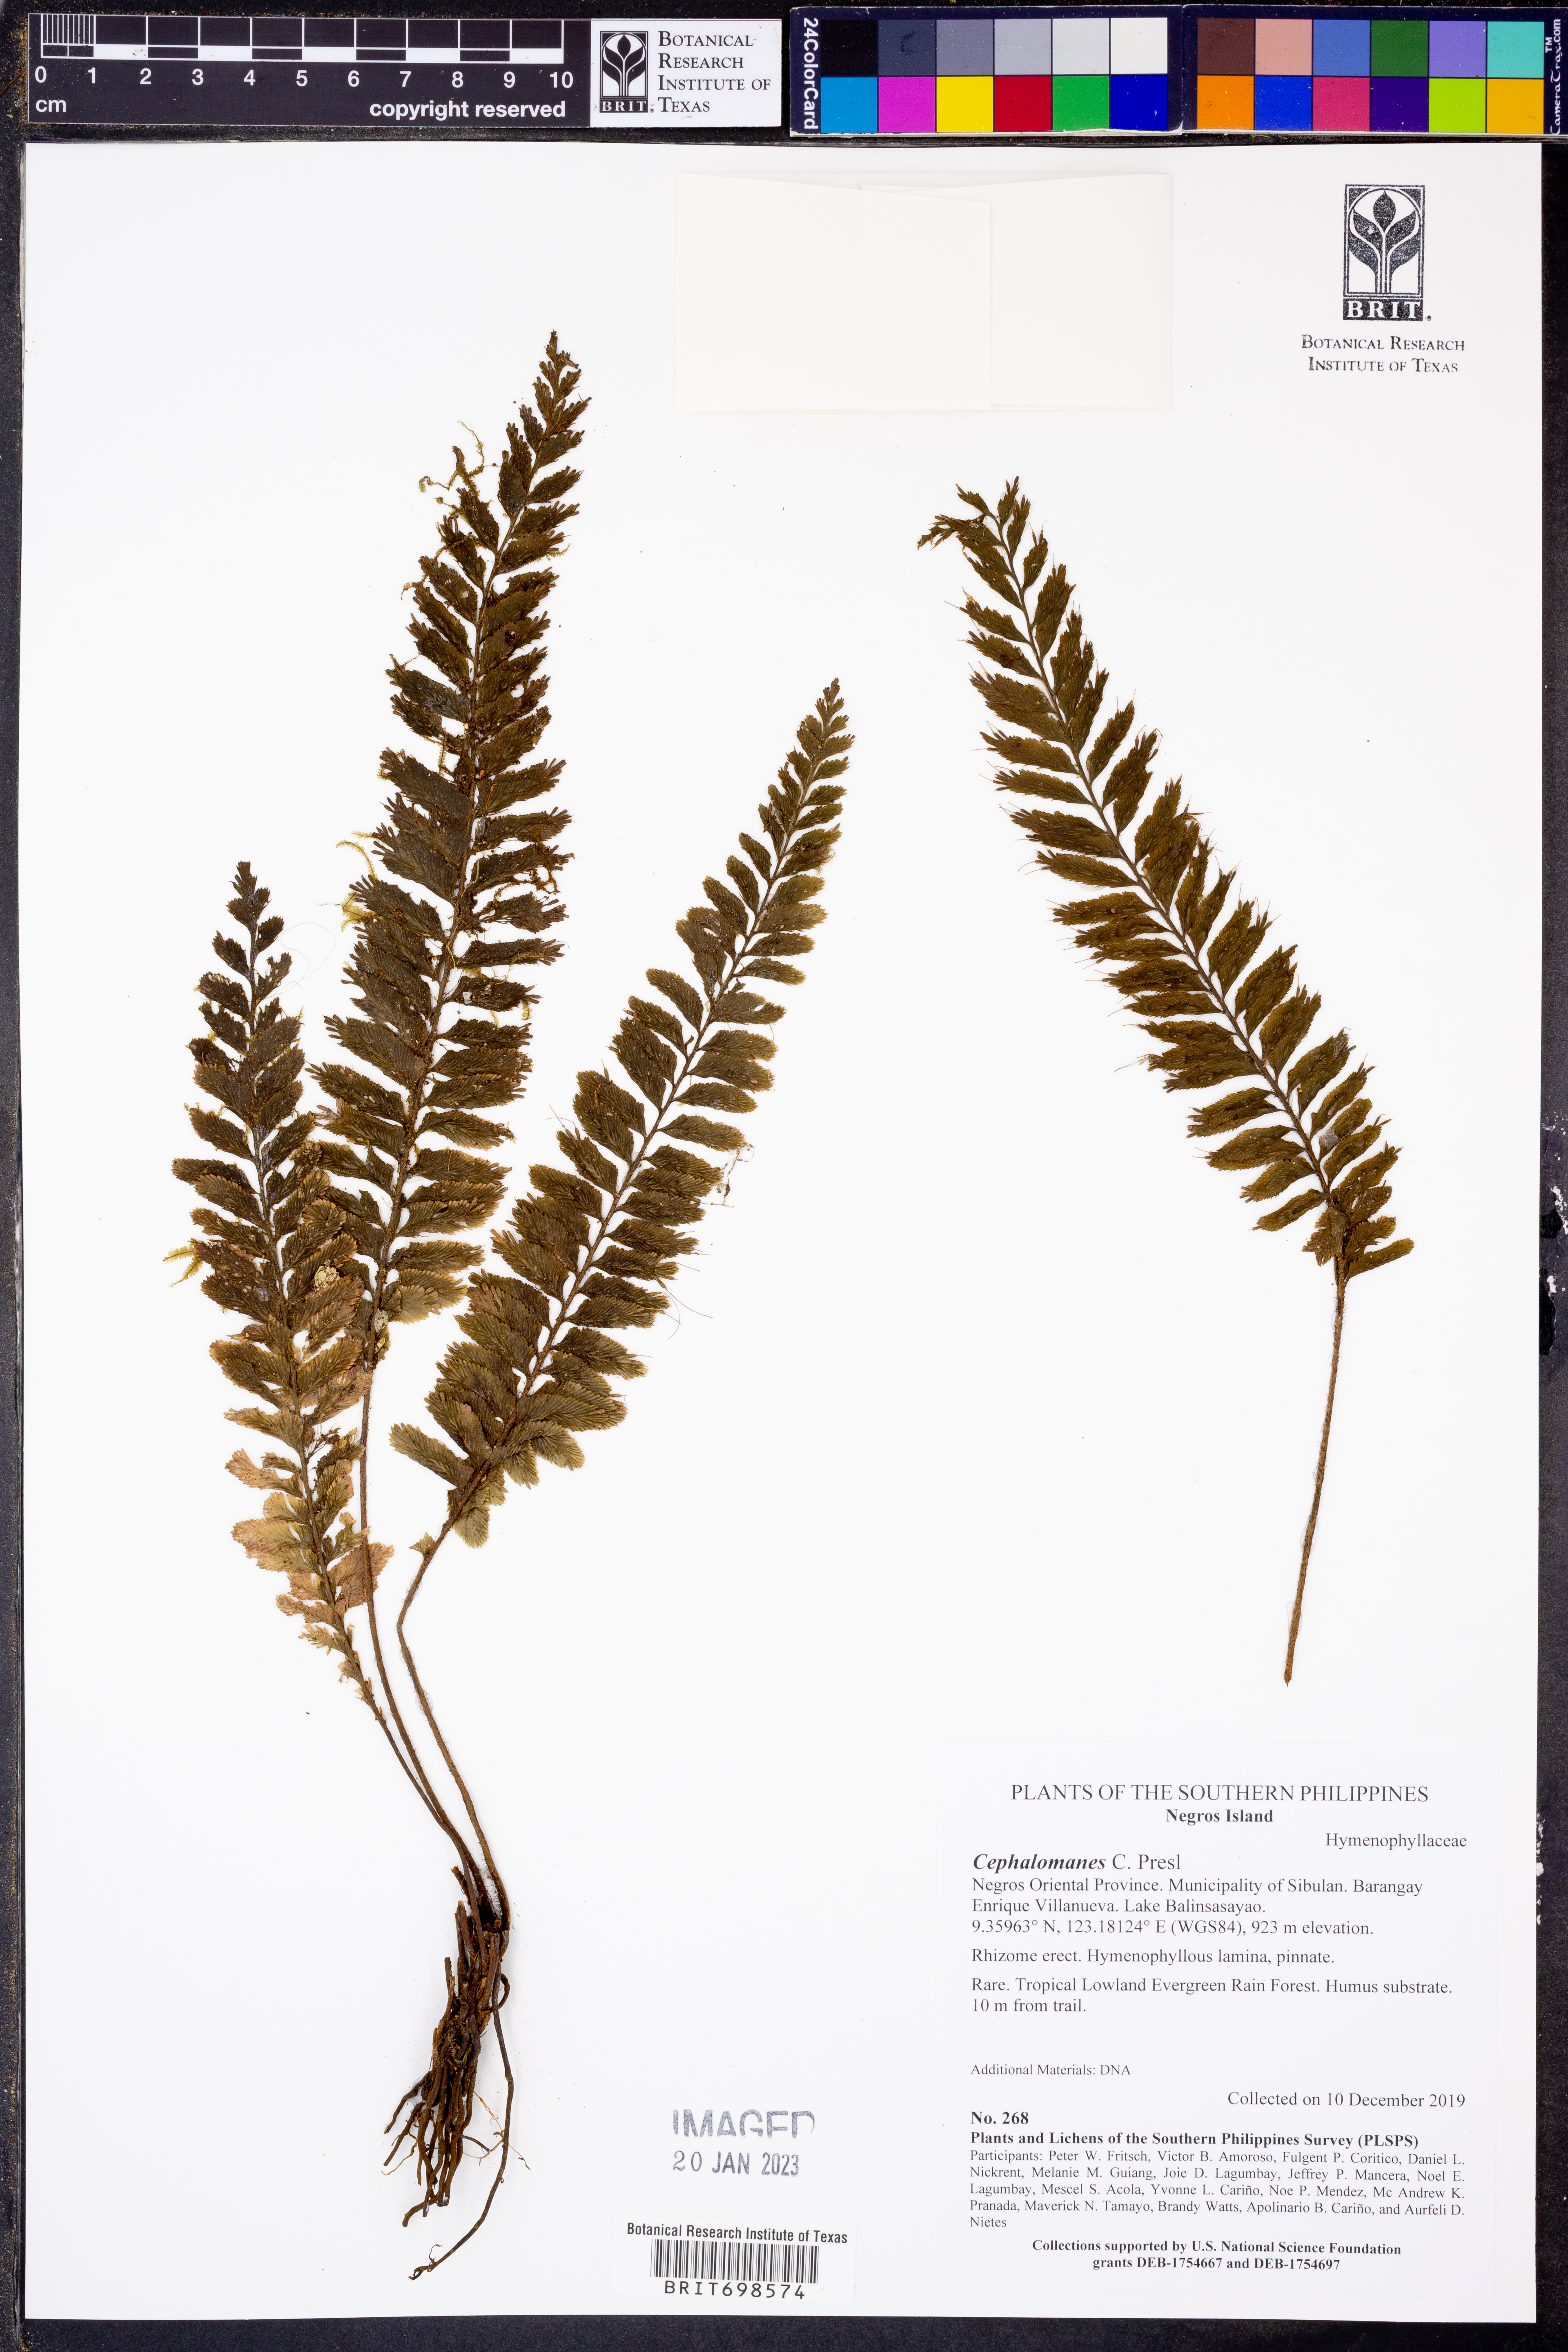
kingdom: Plantae
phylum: Tracheophyta
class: Polypodiopsida
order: Hymenophyllales
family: Hymenophyllaceae
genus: Cephalomanes
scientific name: Cephalomanes
